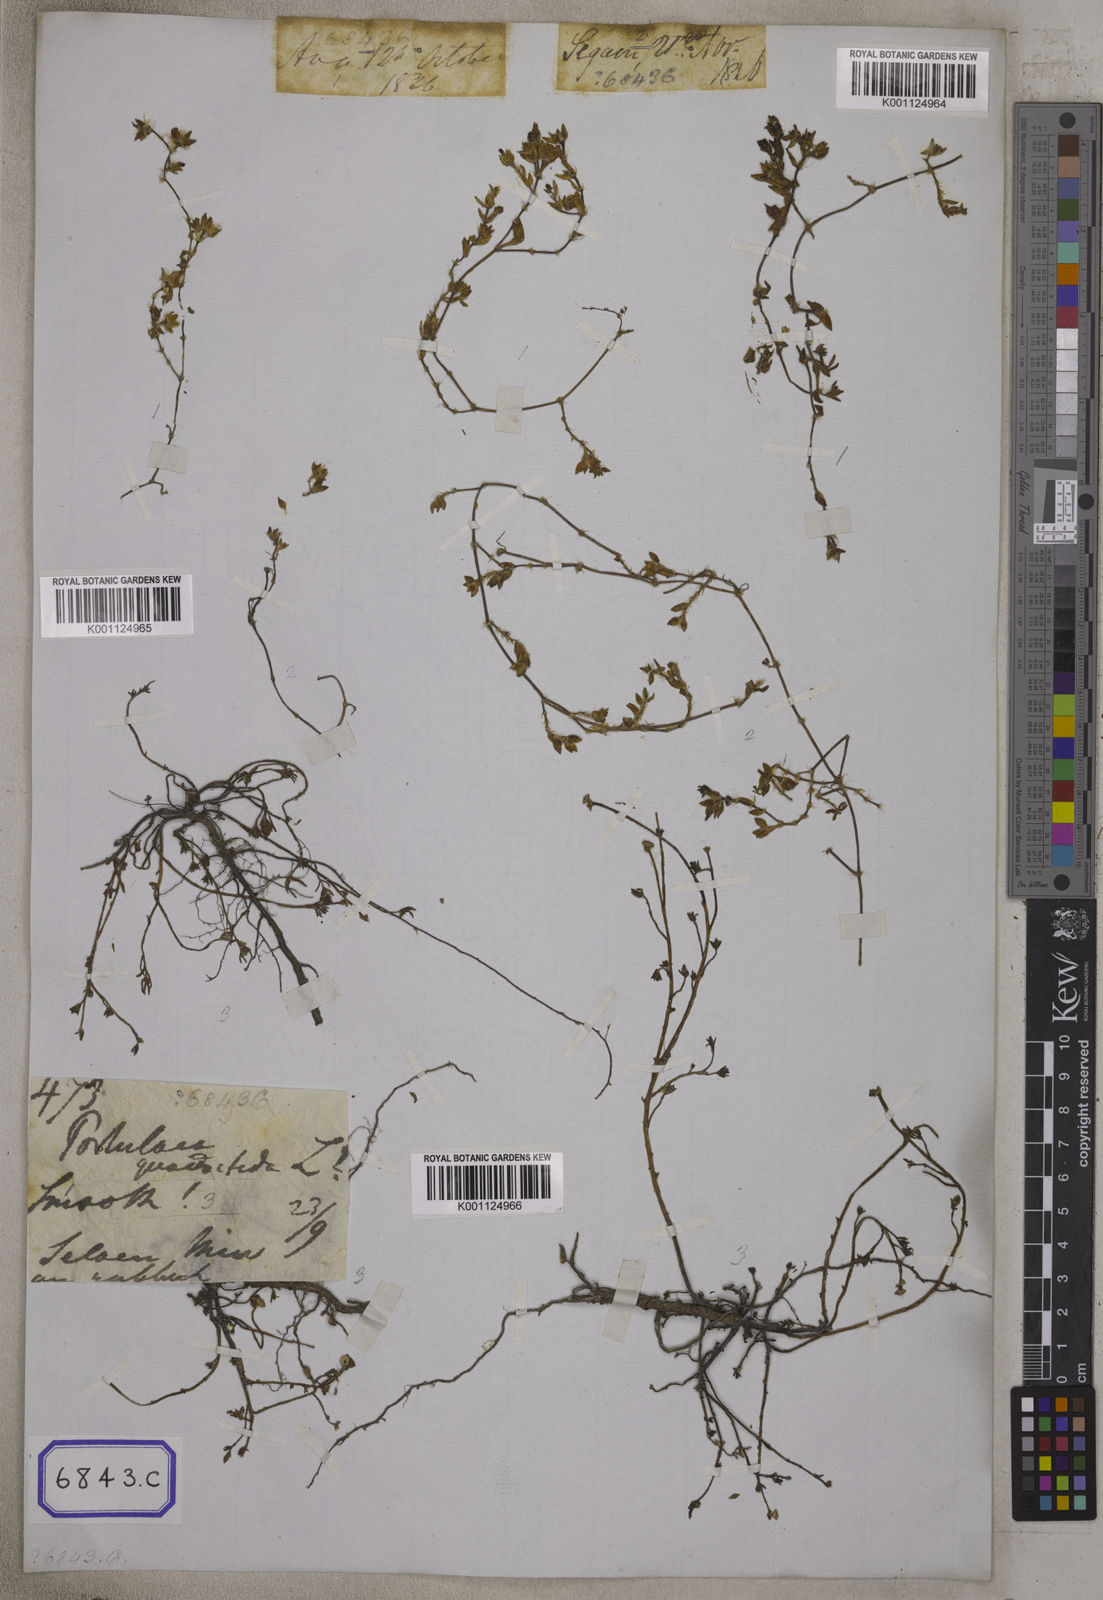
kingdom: Plantae
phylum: Tracheophyta
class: Magnoliopsida
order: Caryophyllales
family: Portulacaceae
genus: Portulaca
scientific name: Portulaca quadrifida
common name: Chickenweed
